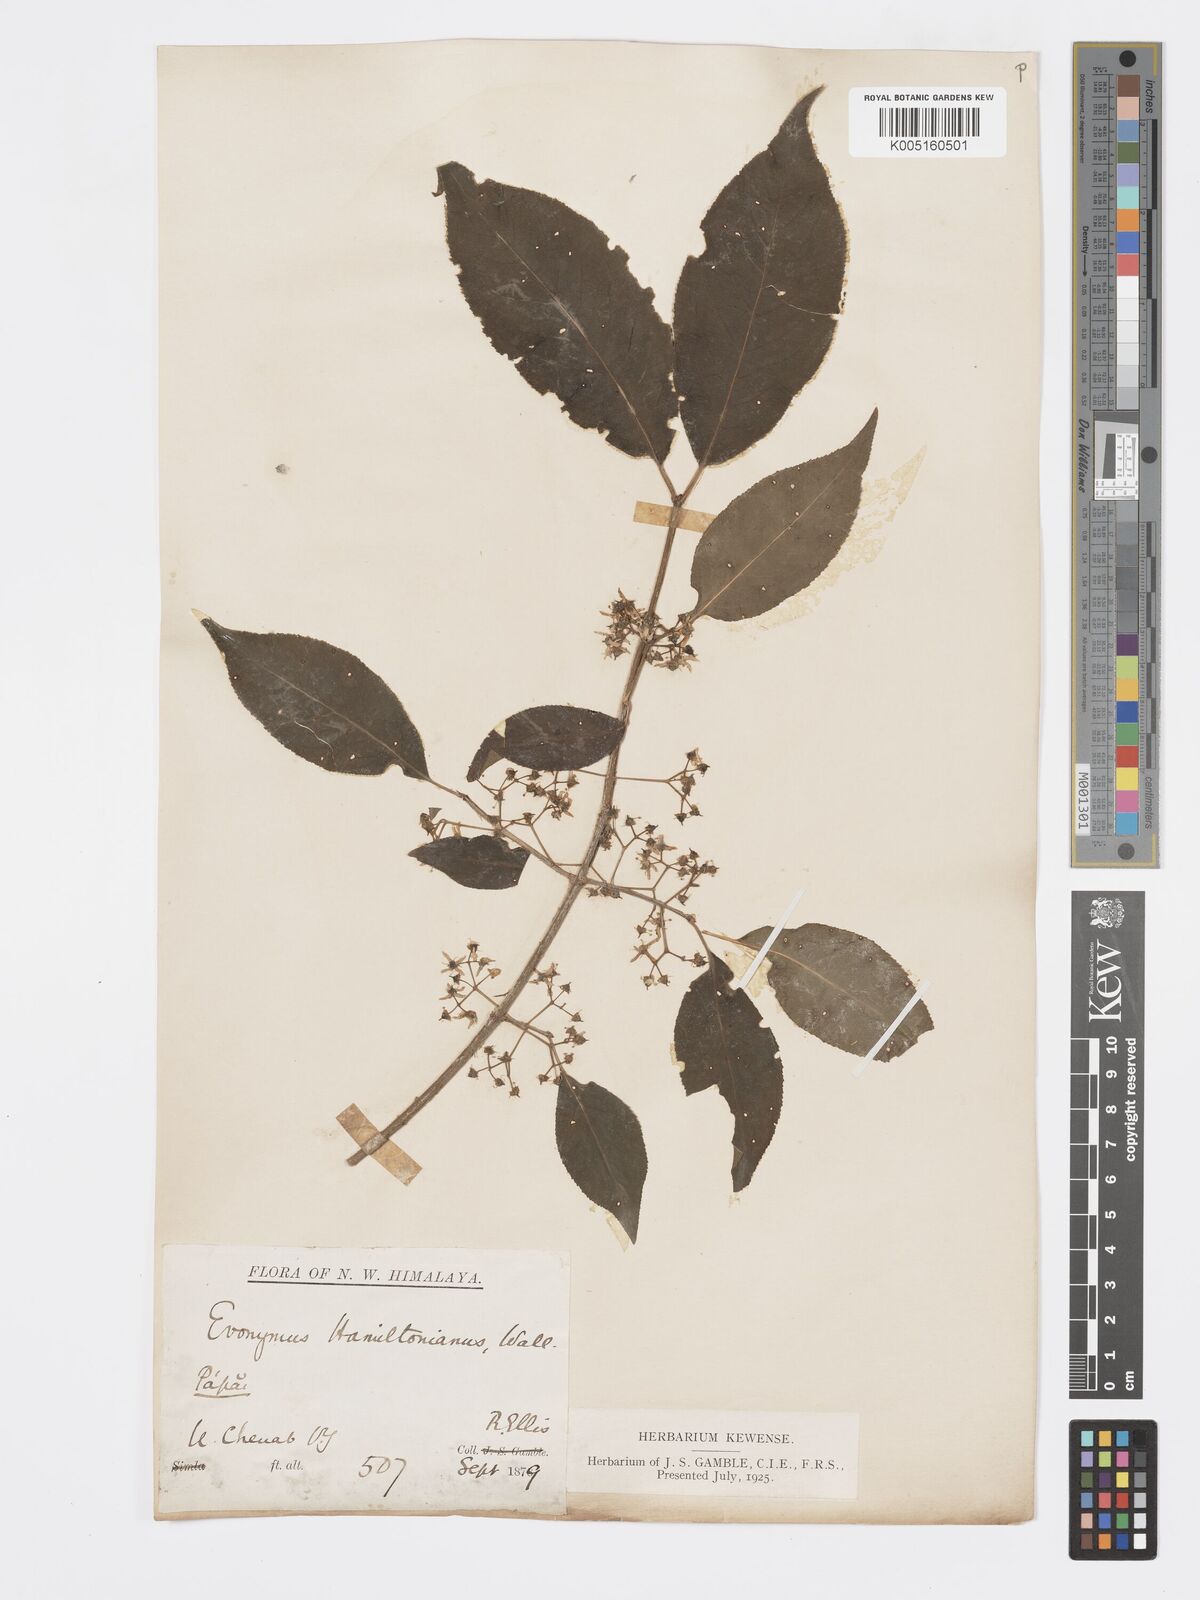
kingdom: Plantae
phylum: Tracheophyta
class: Magnoliopsida
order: Celastrales
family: Celastraceae
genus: Euonymus
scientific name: Euonymus
